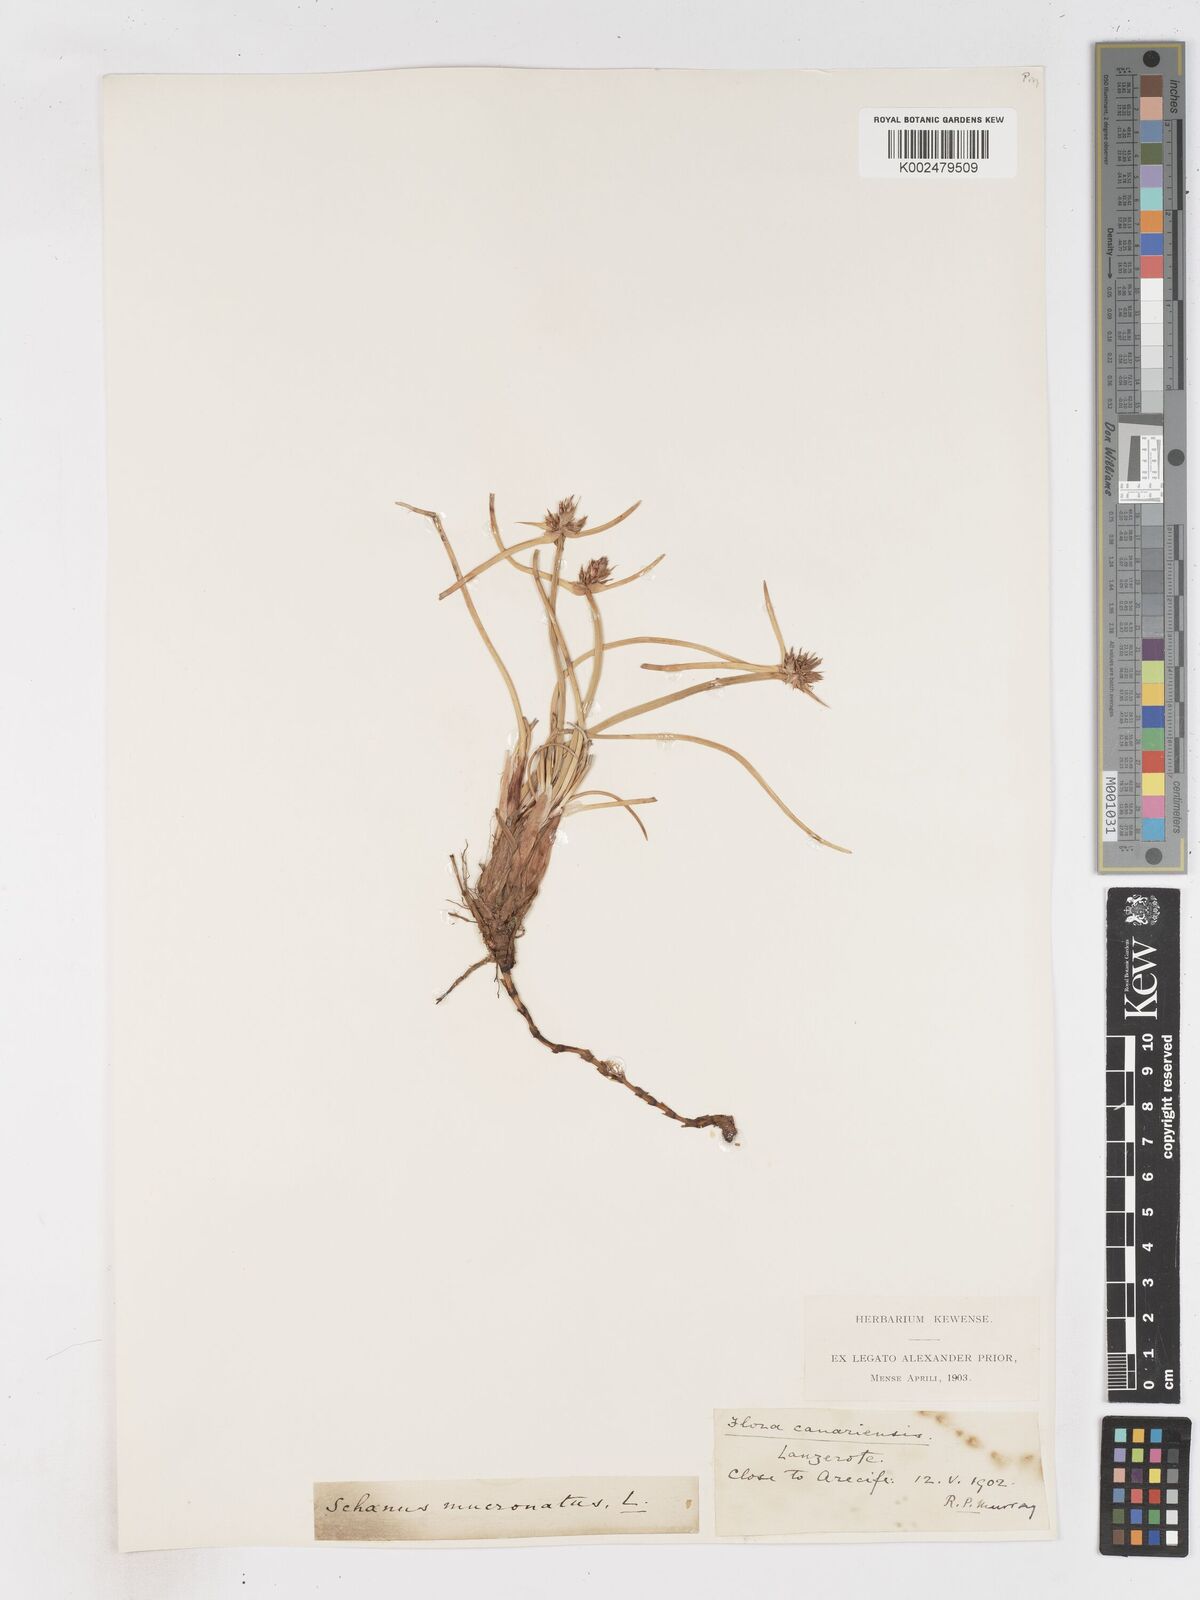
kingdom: Plantae
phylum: Tracheophyta
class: Liliopsida
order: Poales
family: Cyperaceae
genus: Cyperus
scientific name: Cyperus capitatus
